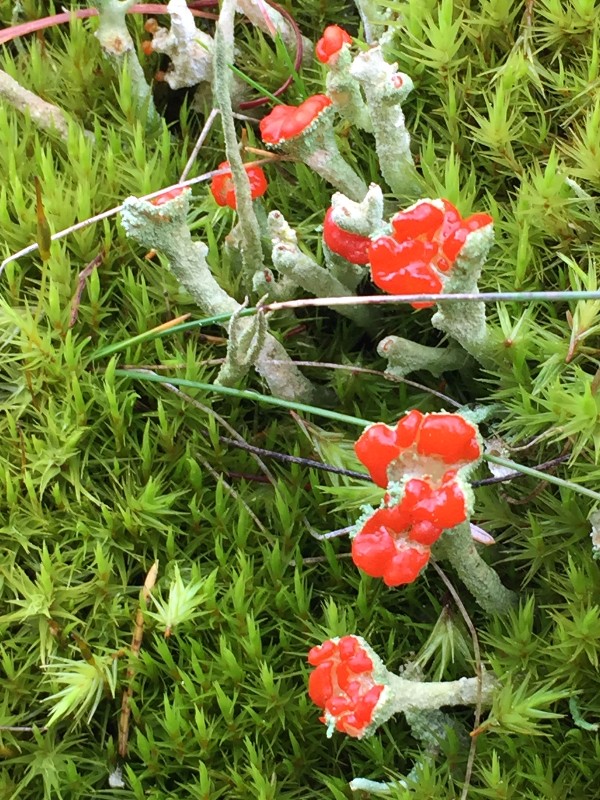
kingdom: Fungi
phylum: Ascomycota
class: Lecanoromycetes
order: Lecanorales
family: Cladoniaceae
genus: Cladonia
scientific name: Cladonia floerkeana
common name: lakrød bægerlav
